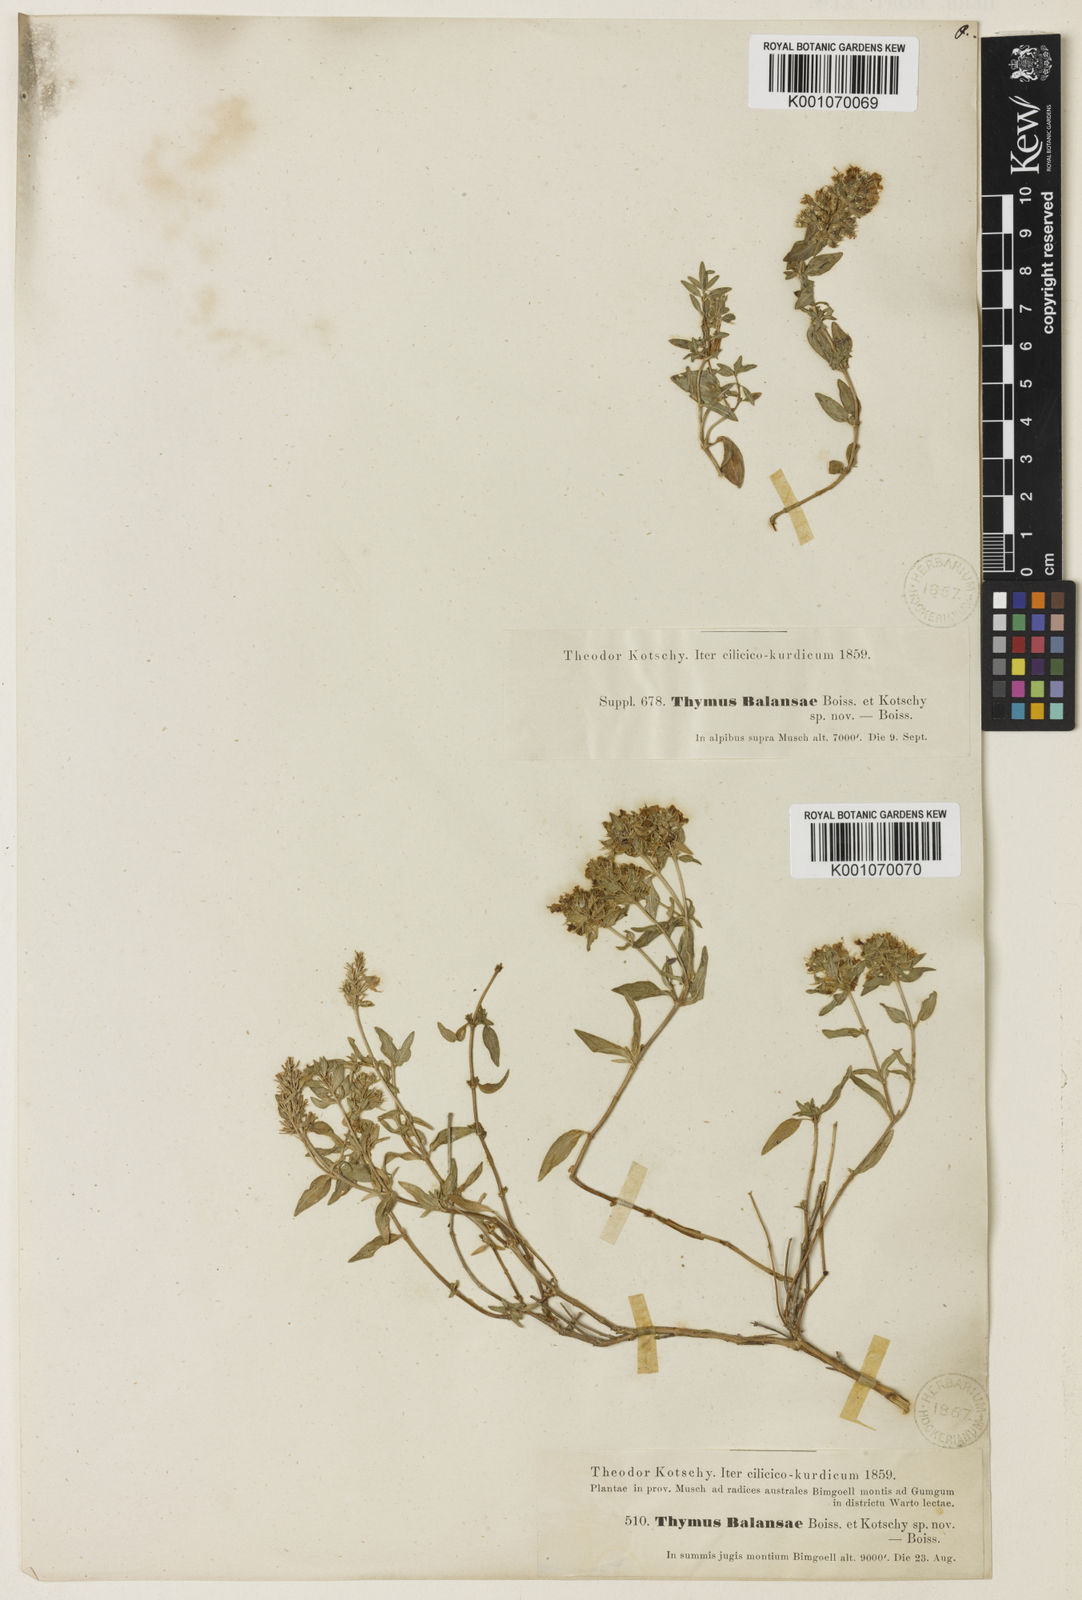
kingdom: Plantae
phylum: Tracheophyta
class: Magnoliopsida
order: Lamiales
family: Lamiaceae
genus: Thymus
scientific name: Thymus fallax
